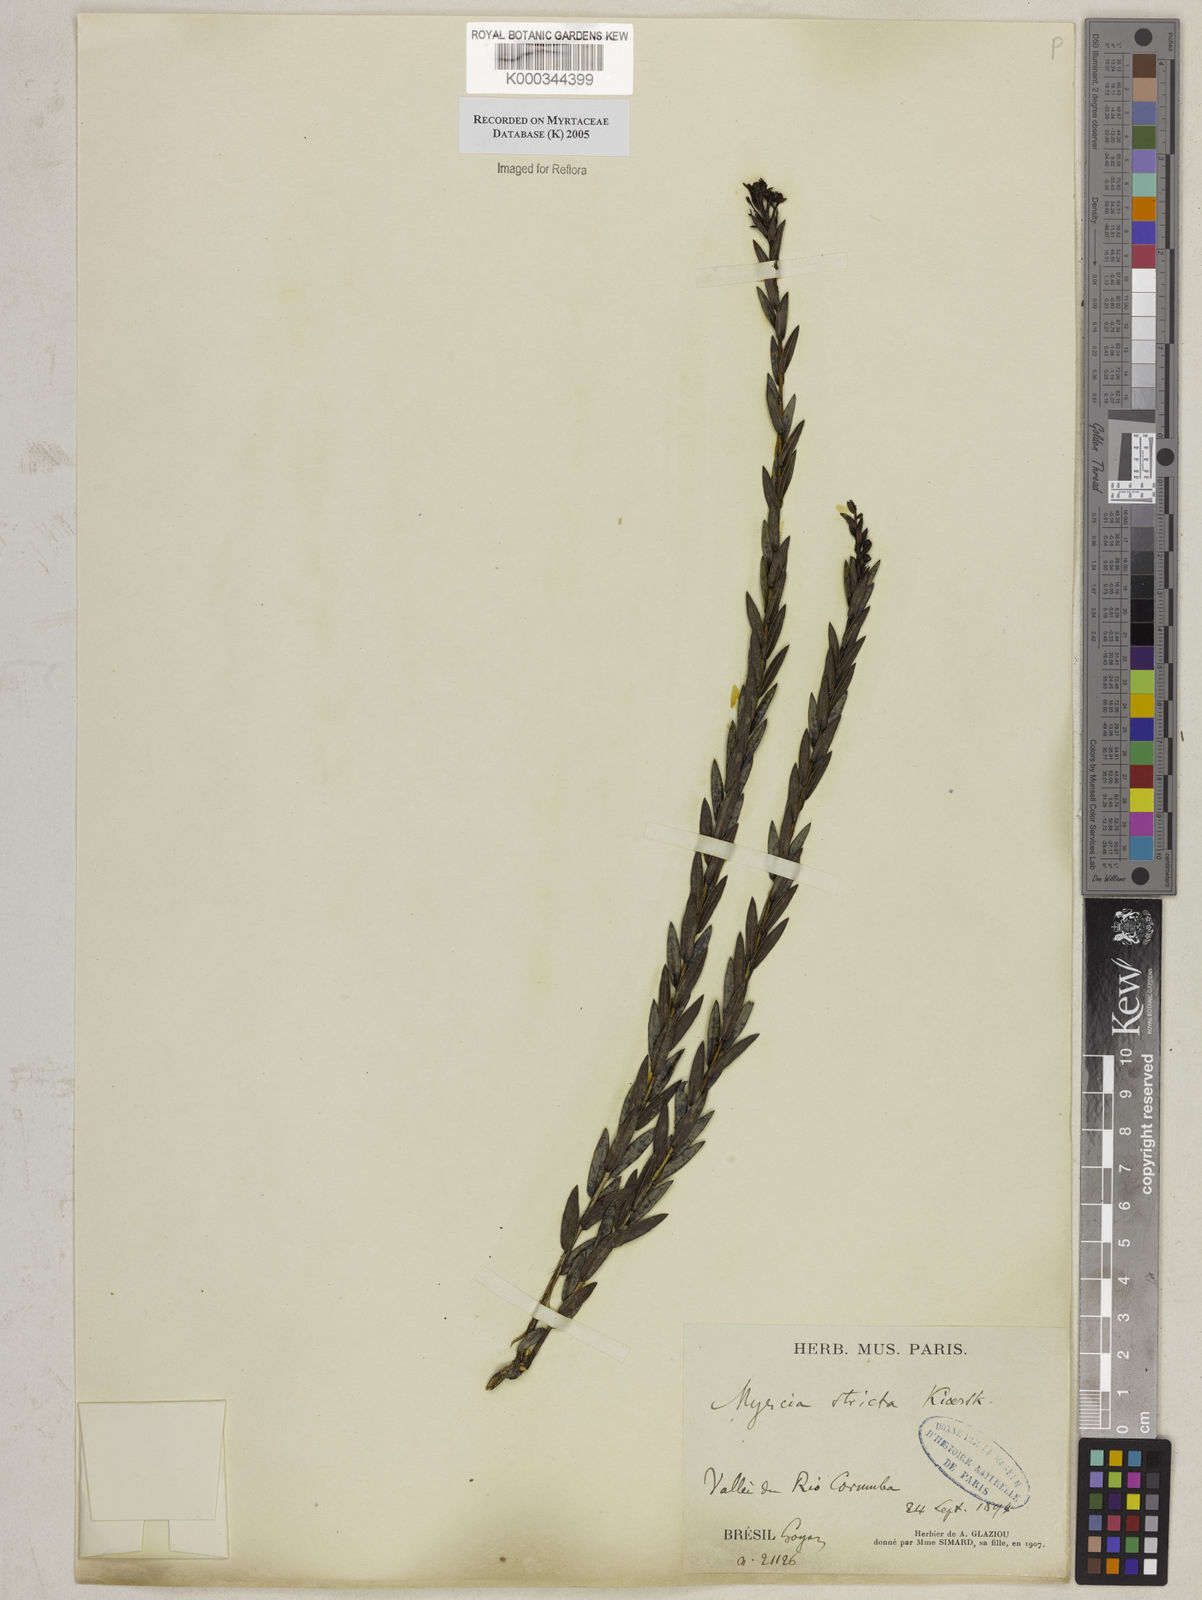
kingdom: Plantae
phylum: Tracheophyta
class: Magnoliopsida
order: Myrtales
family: Myrtaceae
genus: Myrcia
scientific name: Myrcia stricta
